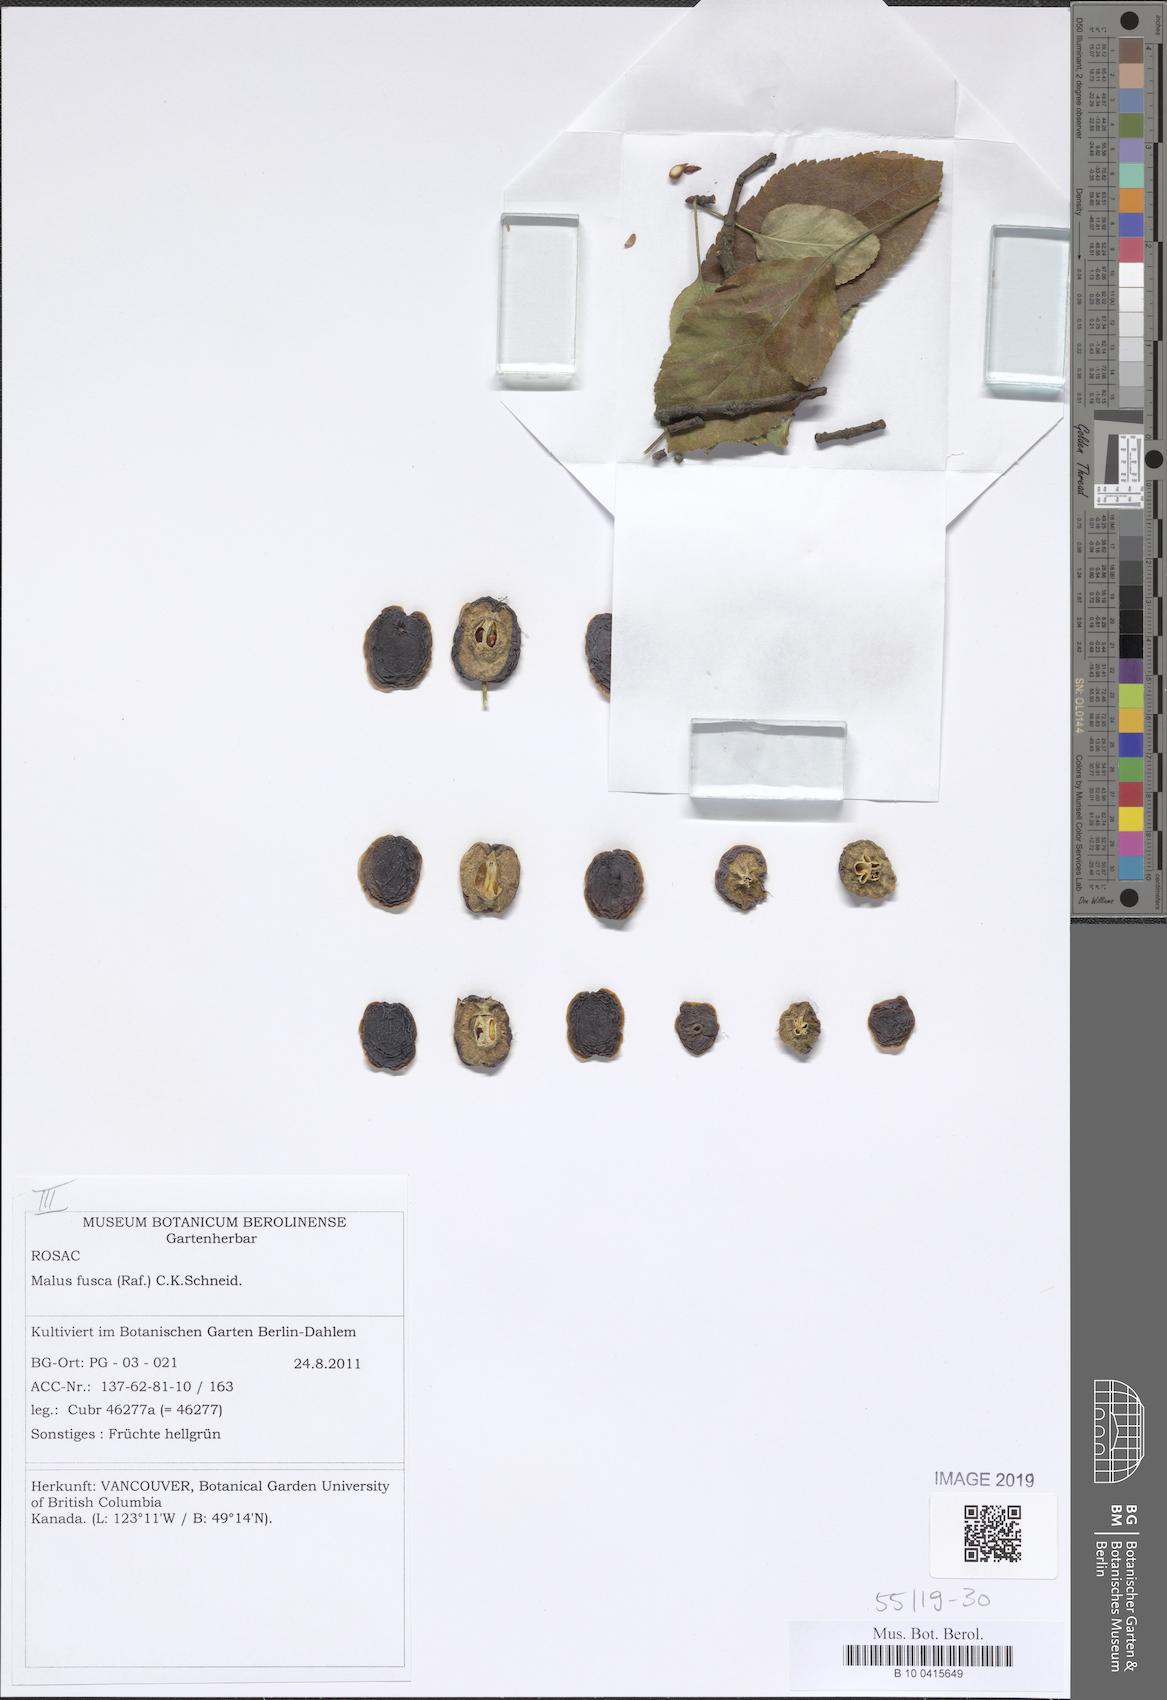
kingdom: Plantae
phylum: Tracheophyta
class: Magnoliopsida
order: Rosales
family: Rosaceae
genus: Malus
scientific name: Malus fusca
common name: Oregon crab apple
